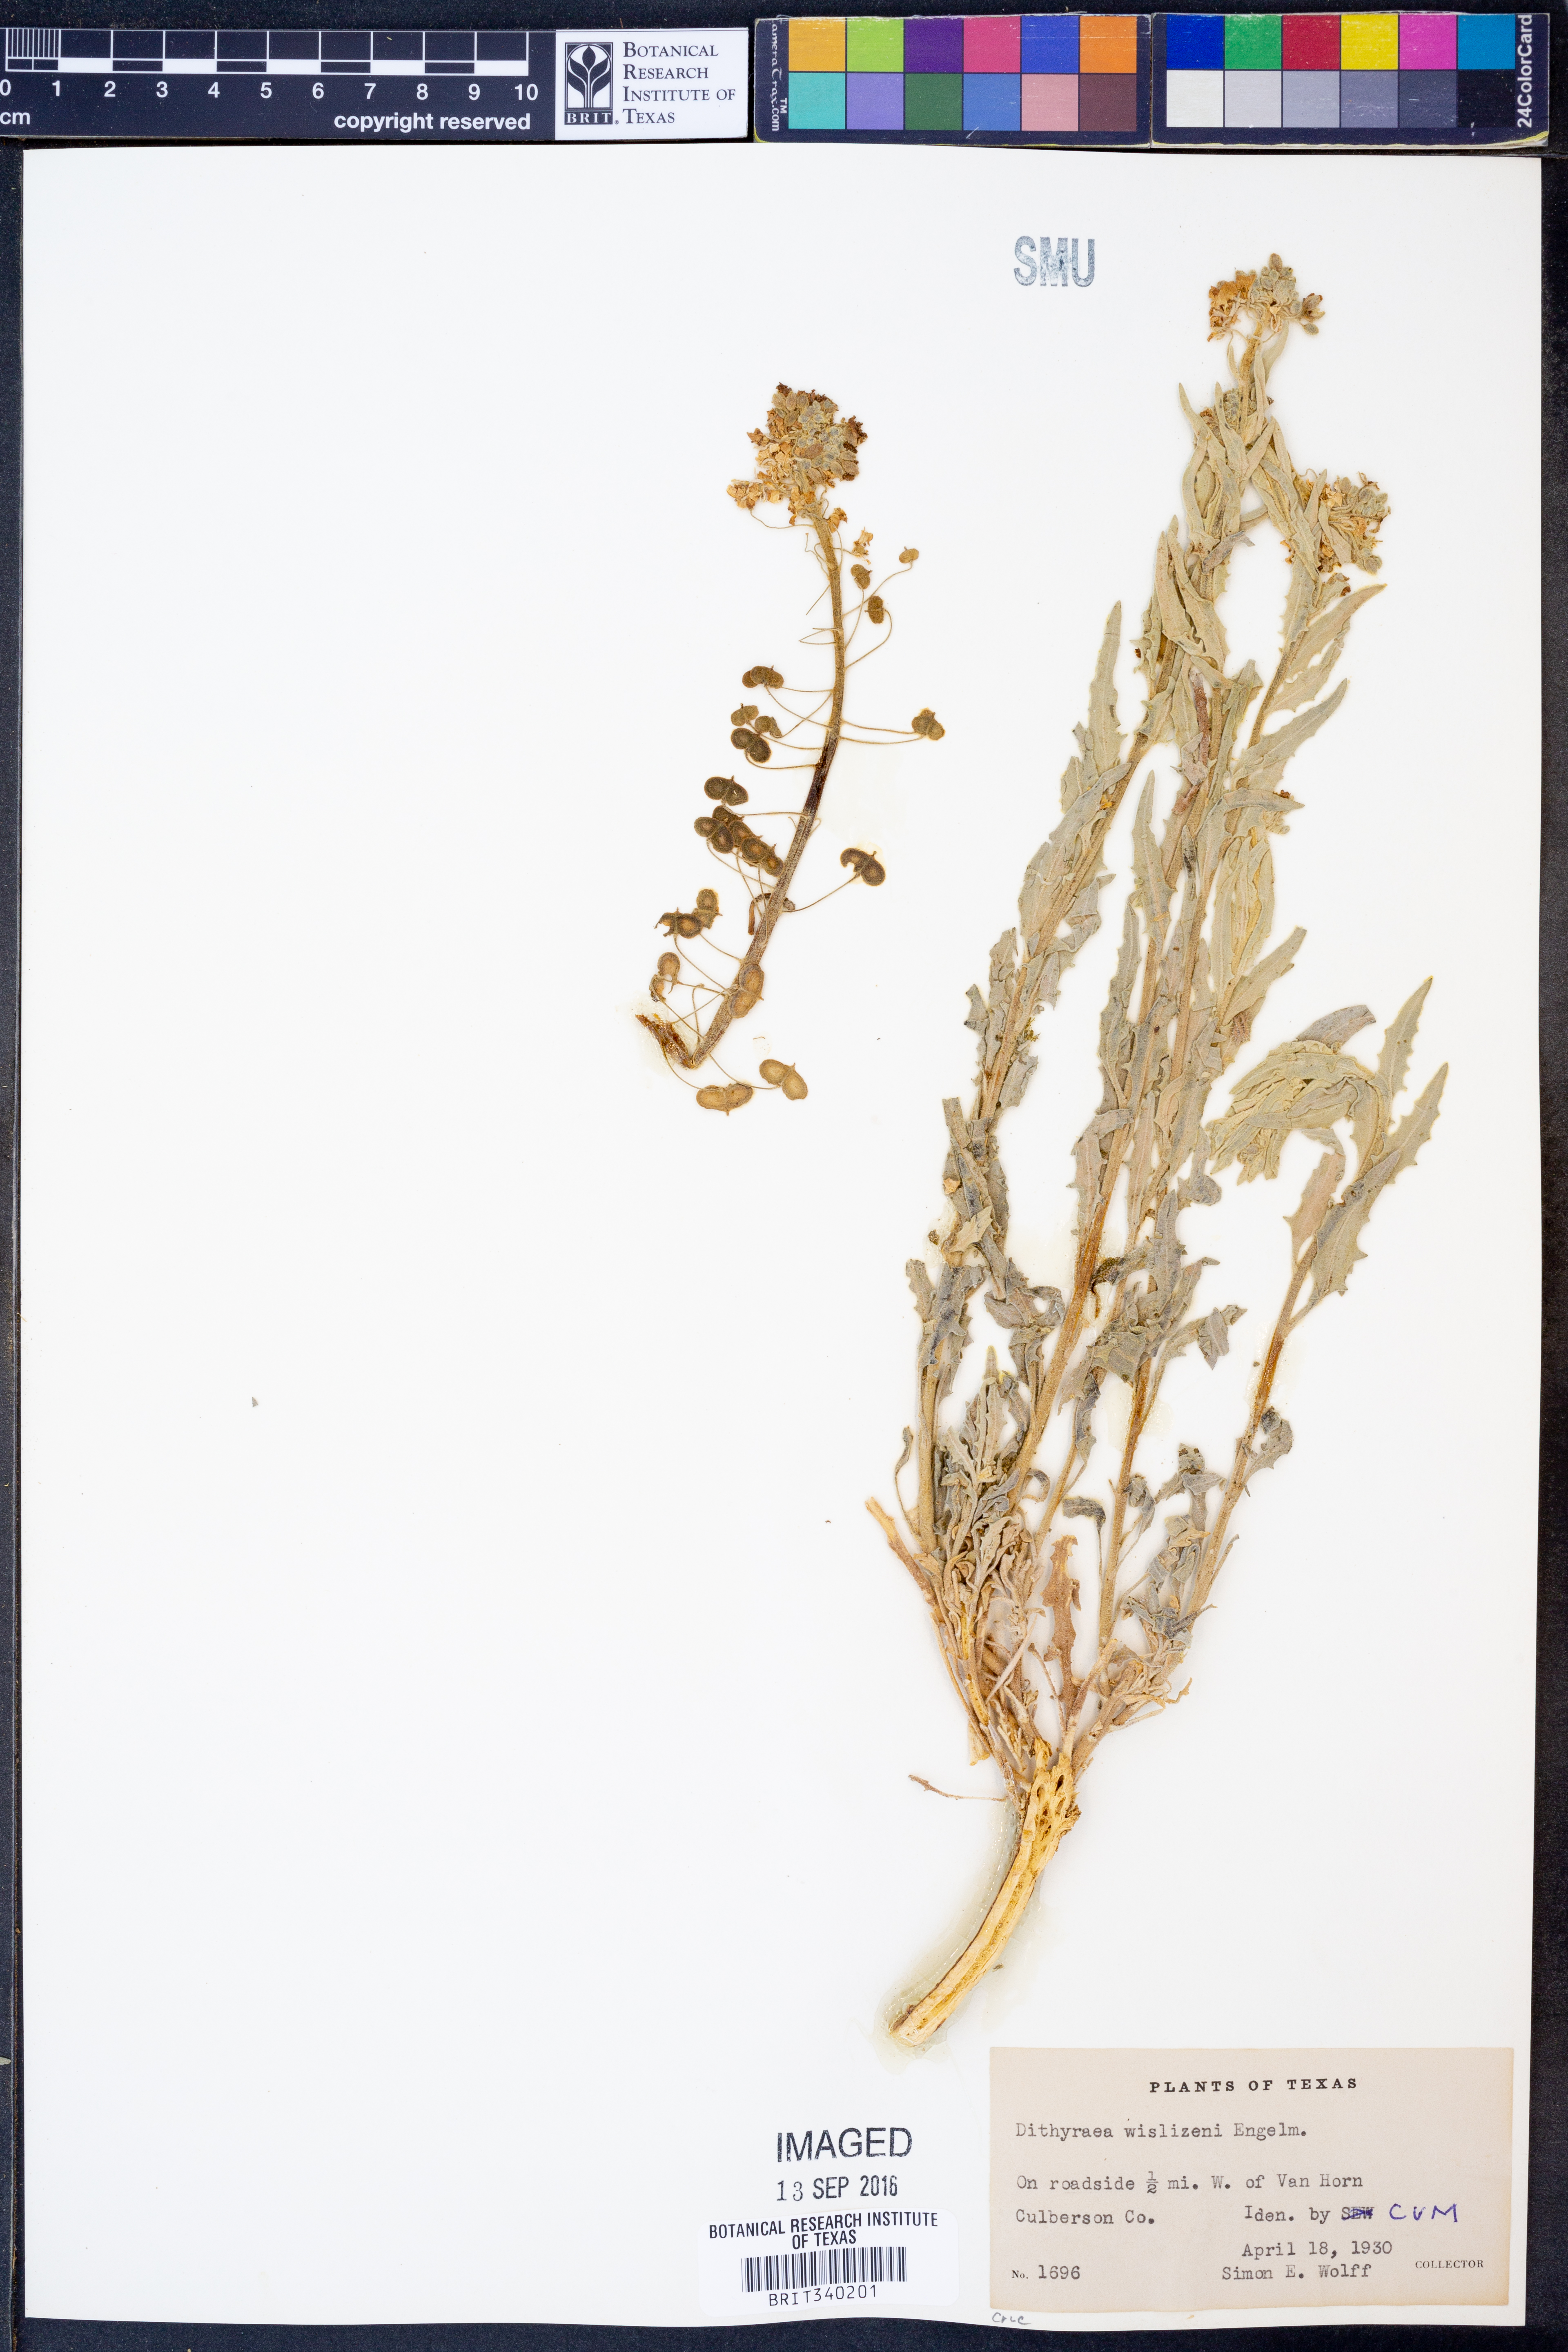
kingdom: Plantae
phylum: Tracheophyta
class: Magnoliopsida
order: Brassicales
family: Brassicaceae
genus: Dimorphocarpa
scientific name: Dimorphocarpa wislizenii
